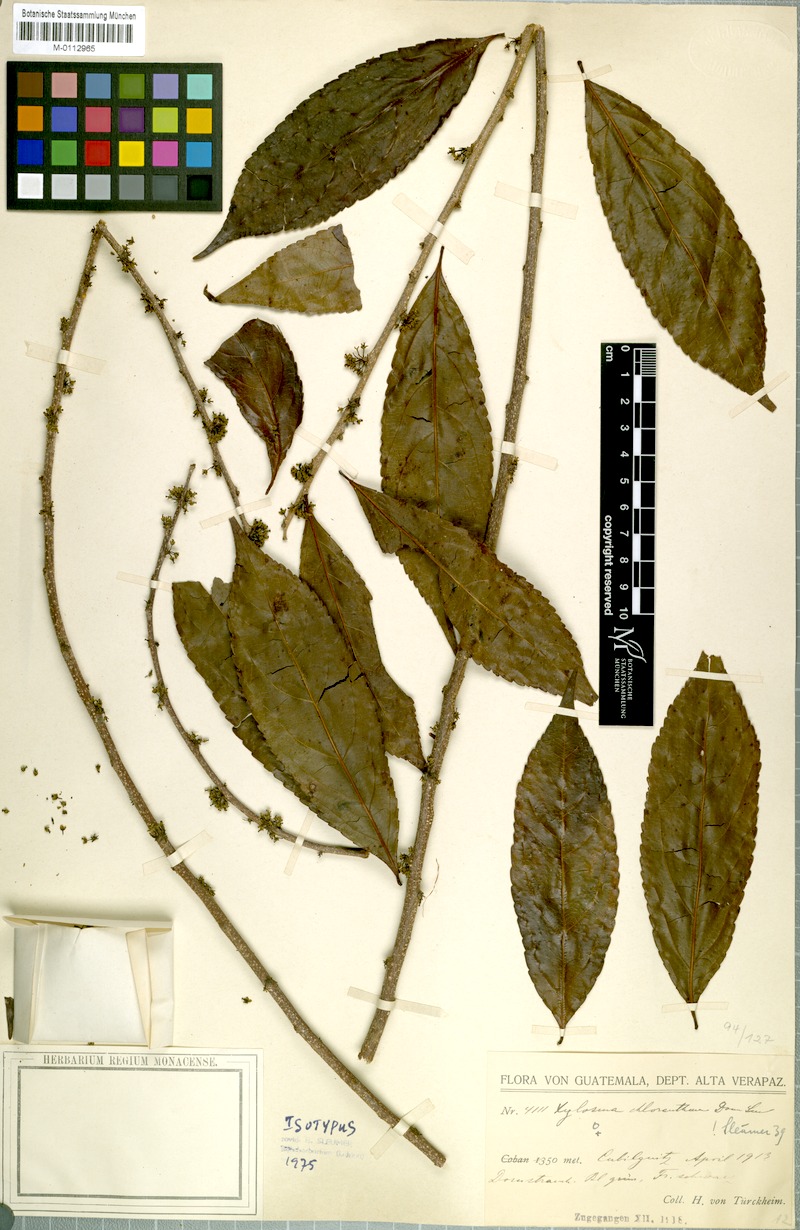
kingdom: Plantae
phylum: Tracheophyta
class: Magnoliopsida
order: Malpighiales
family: Salicaceae
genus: Xylosma
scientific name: Xylosma chlorantha
